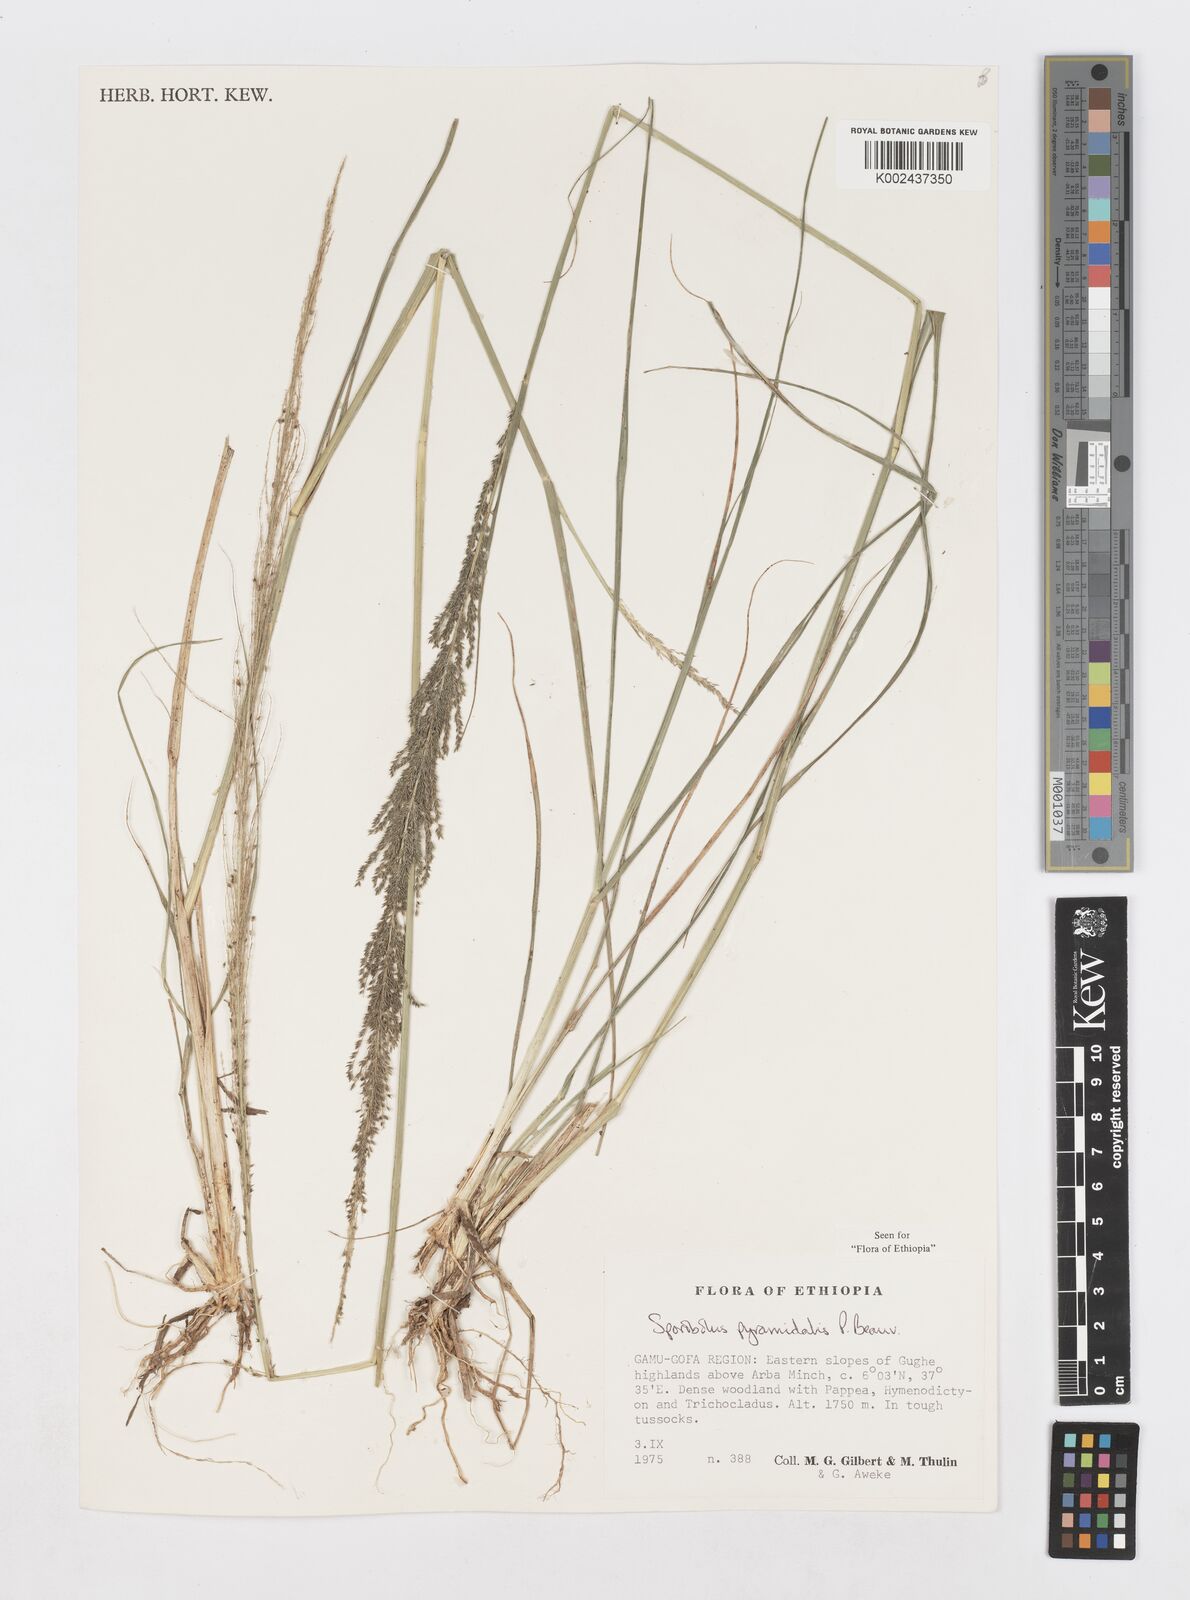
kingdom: Plantae
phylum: Tracheophyta
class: Liliopsida
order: Poales
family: Poaceae
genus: Sporobolus
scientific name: Sporobolus pyramidalis
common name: West indian dropseed
